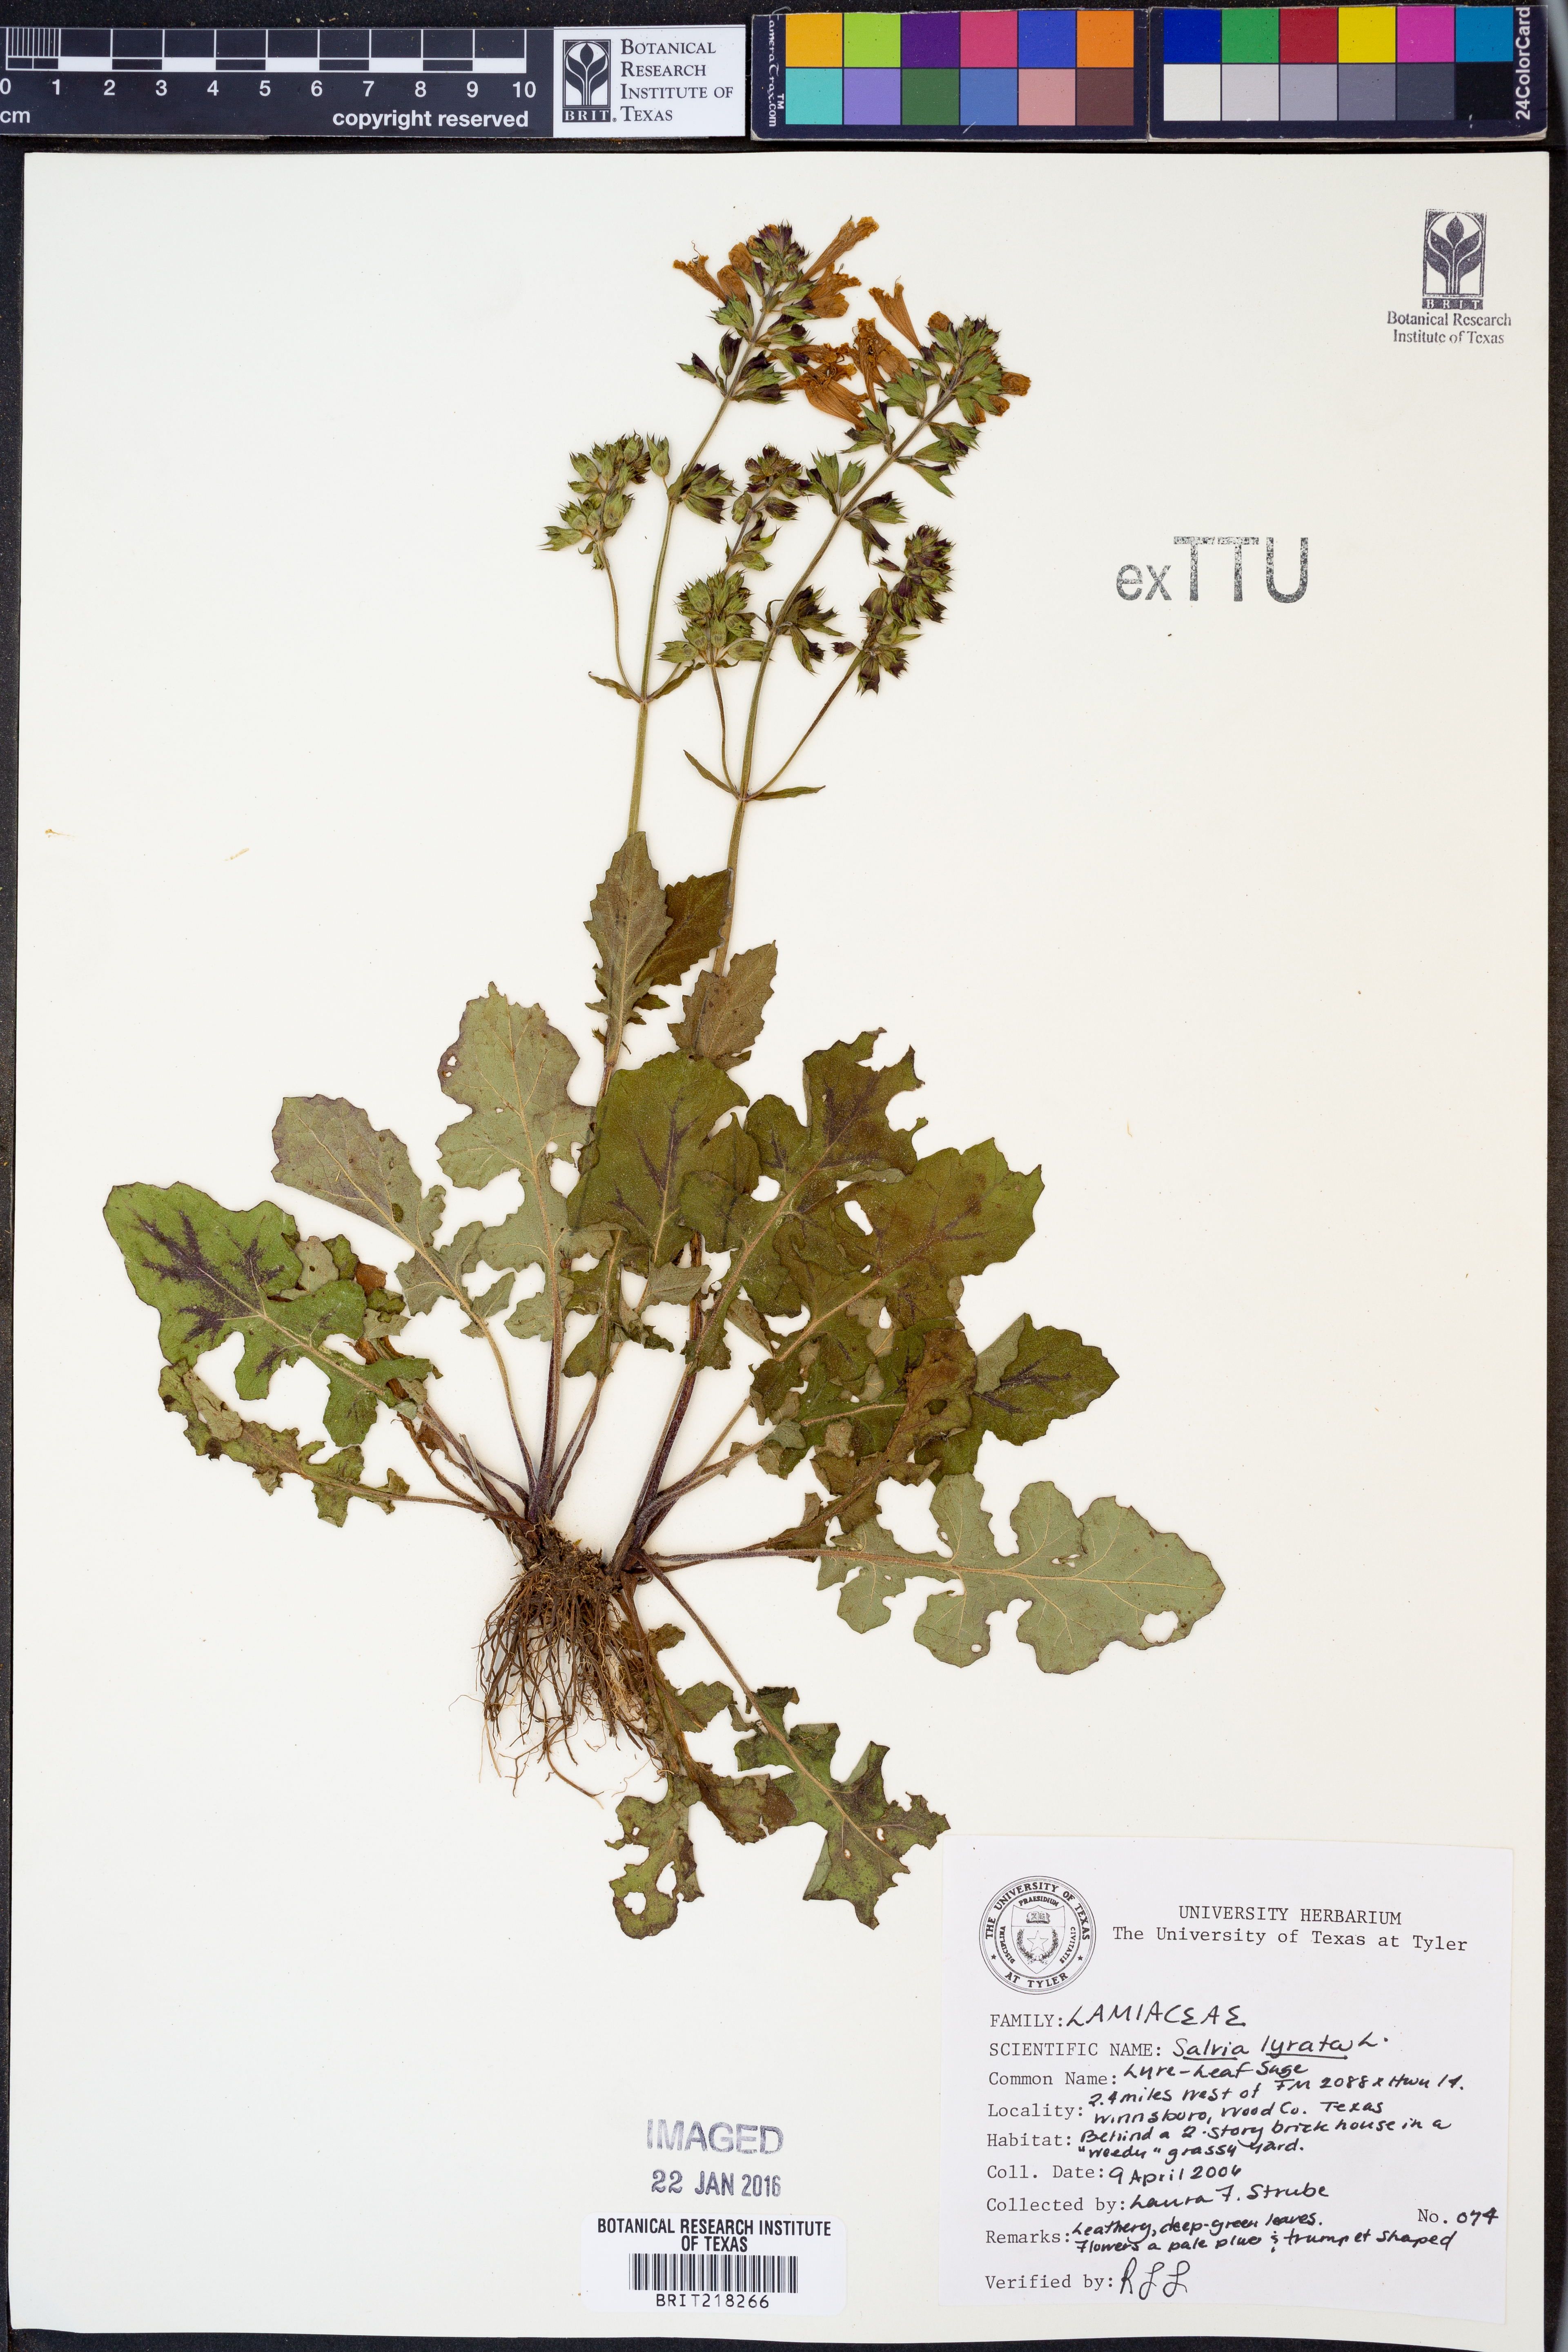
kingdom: Plantae
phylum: Tracheophyta
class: Magnoliopsida
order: Lamiales
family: Lamiaceae
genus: Salvia
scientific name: Salvia lyrata
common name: Cancerweed
